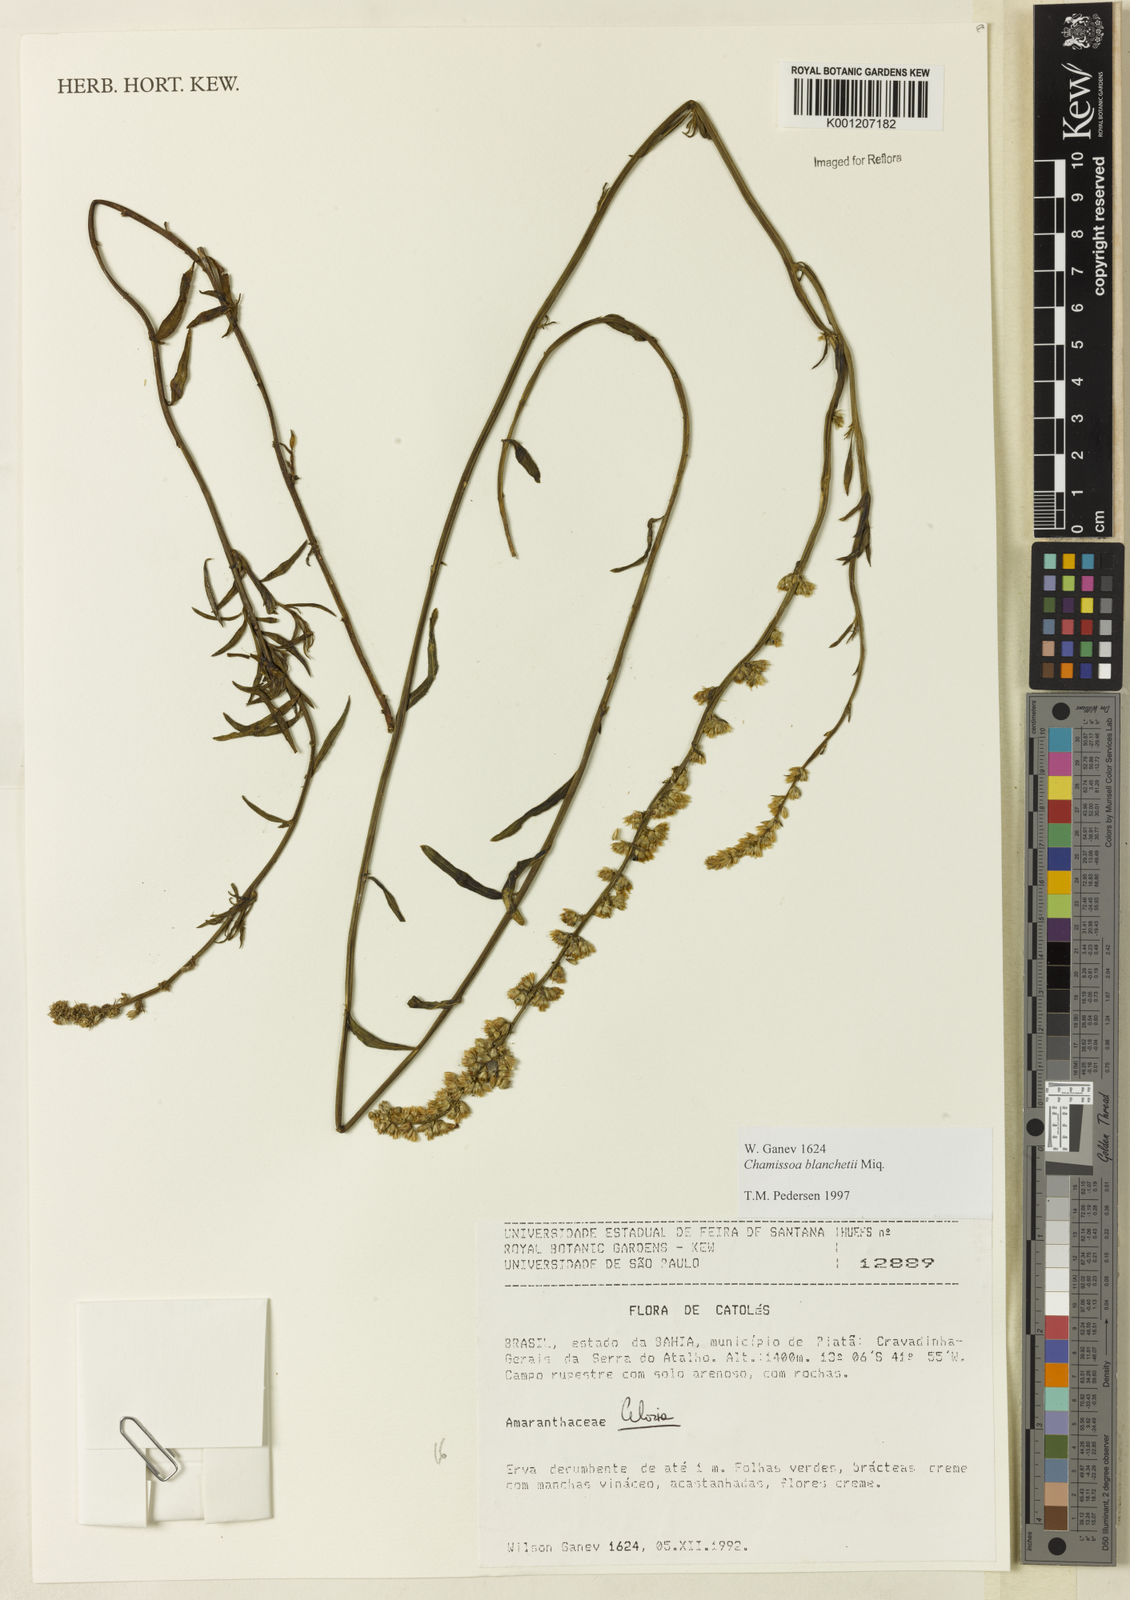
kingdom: Plantae
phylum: Tracheophyta
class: Magnoliopsida
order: Caryophyllales
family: Amaranthaceae
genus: Chamissoa
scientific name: Chamissoa acuminata
